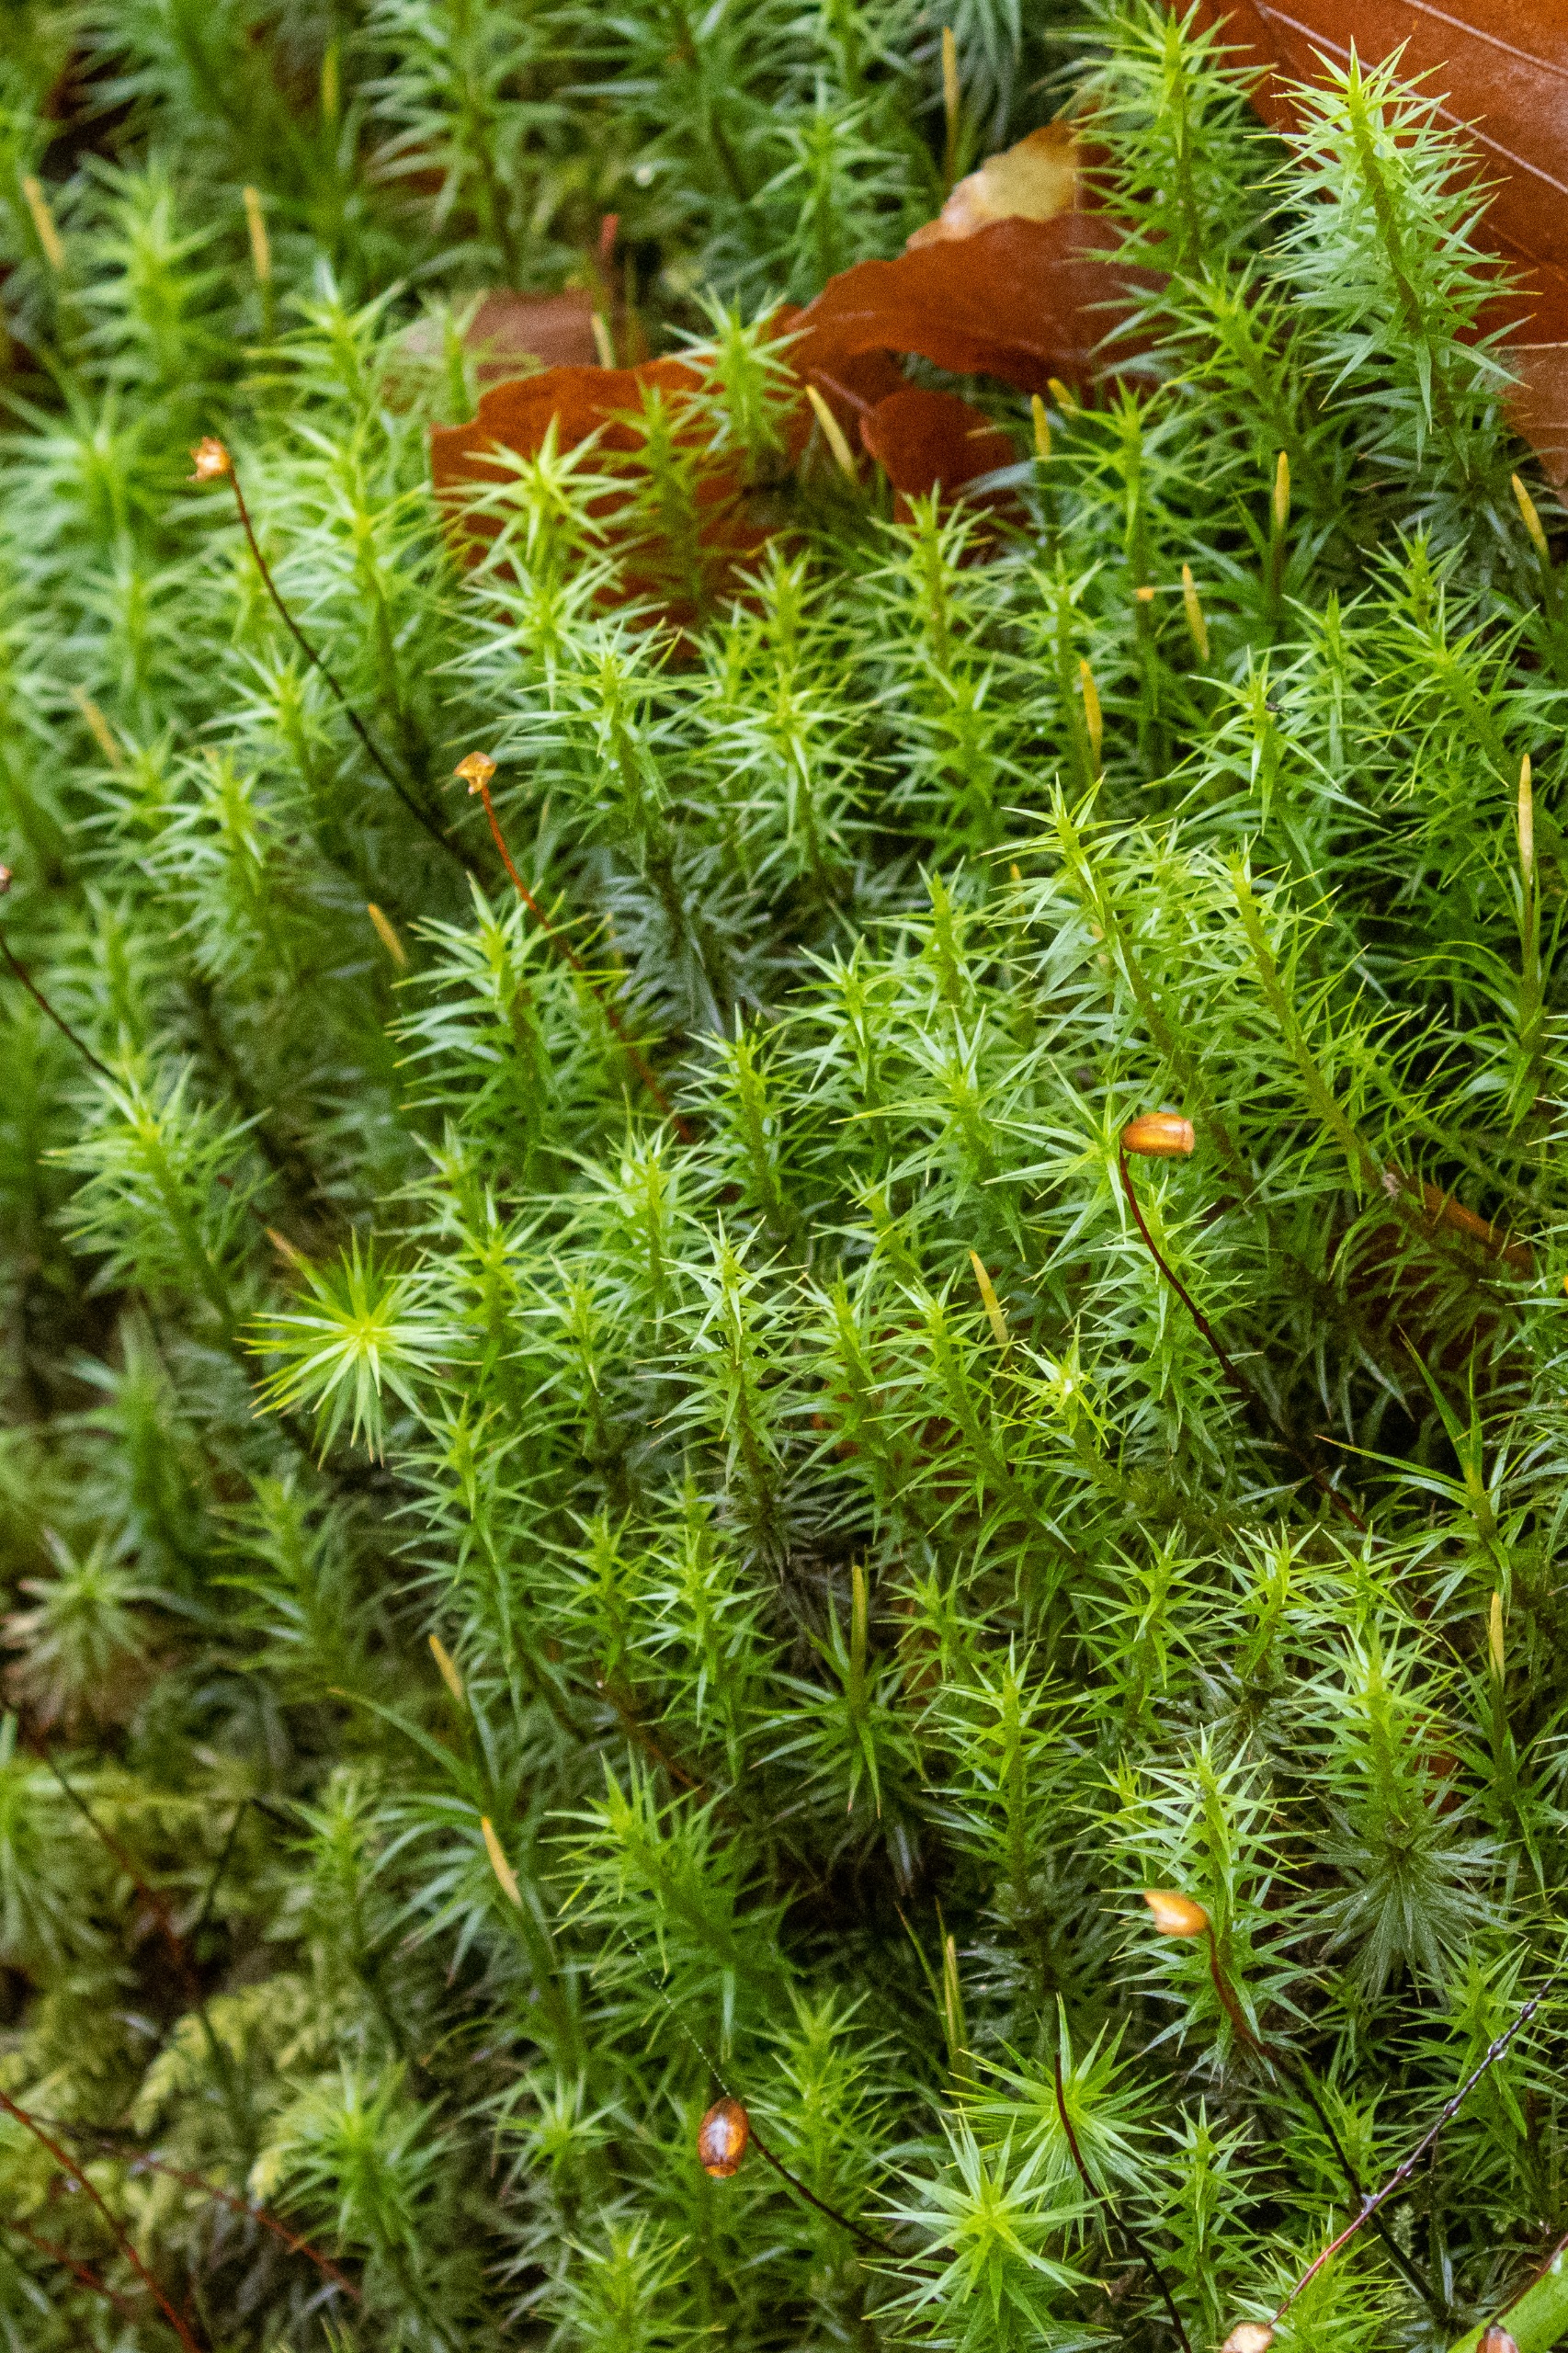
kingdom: Plantae
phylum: Bryophyta
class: Polytrichopsida
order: Polytrichales
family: Polytrichaceae
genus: Polytrichum
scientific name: Polytrichum formosum
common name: Skov-jomfruhår
